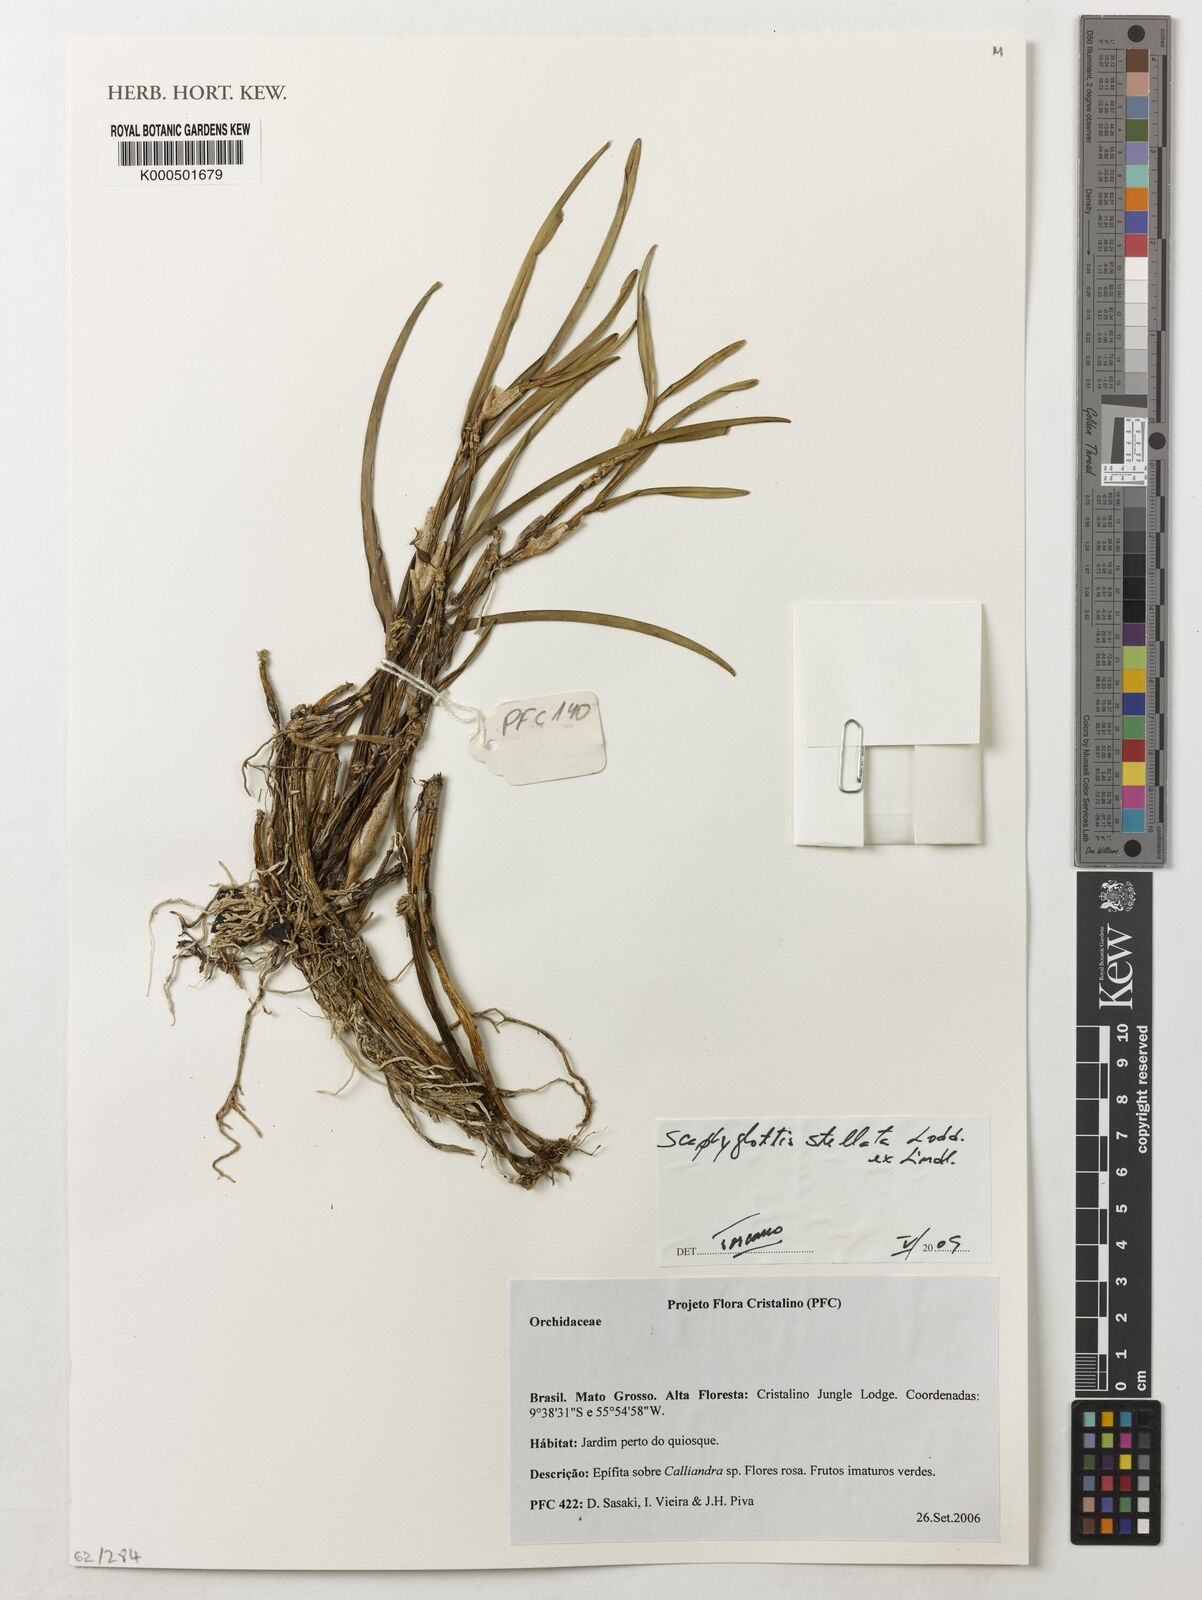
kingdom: Plantae
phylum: Tracheophyta
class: Liliopsida
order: Asparagales
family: Orchidaceae
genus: Scaphyglottis
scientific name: Scaphyglottis stellata
